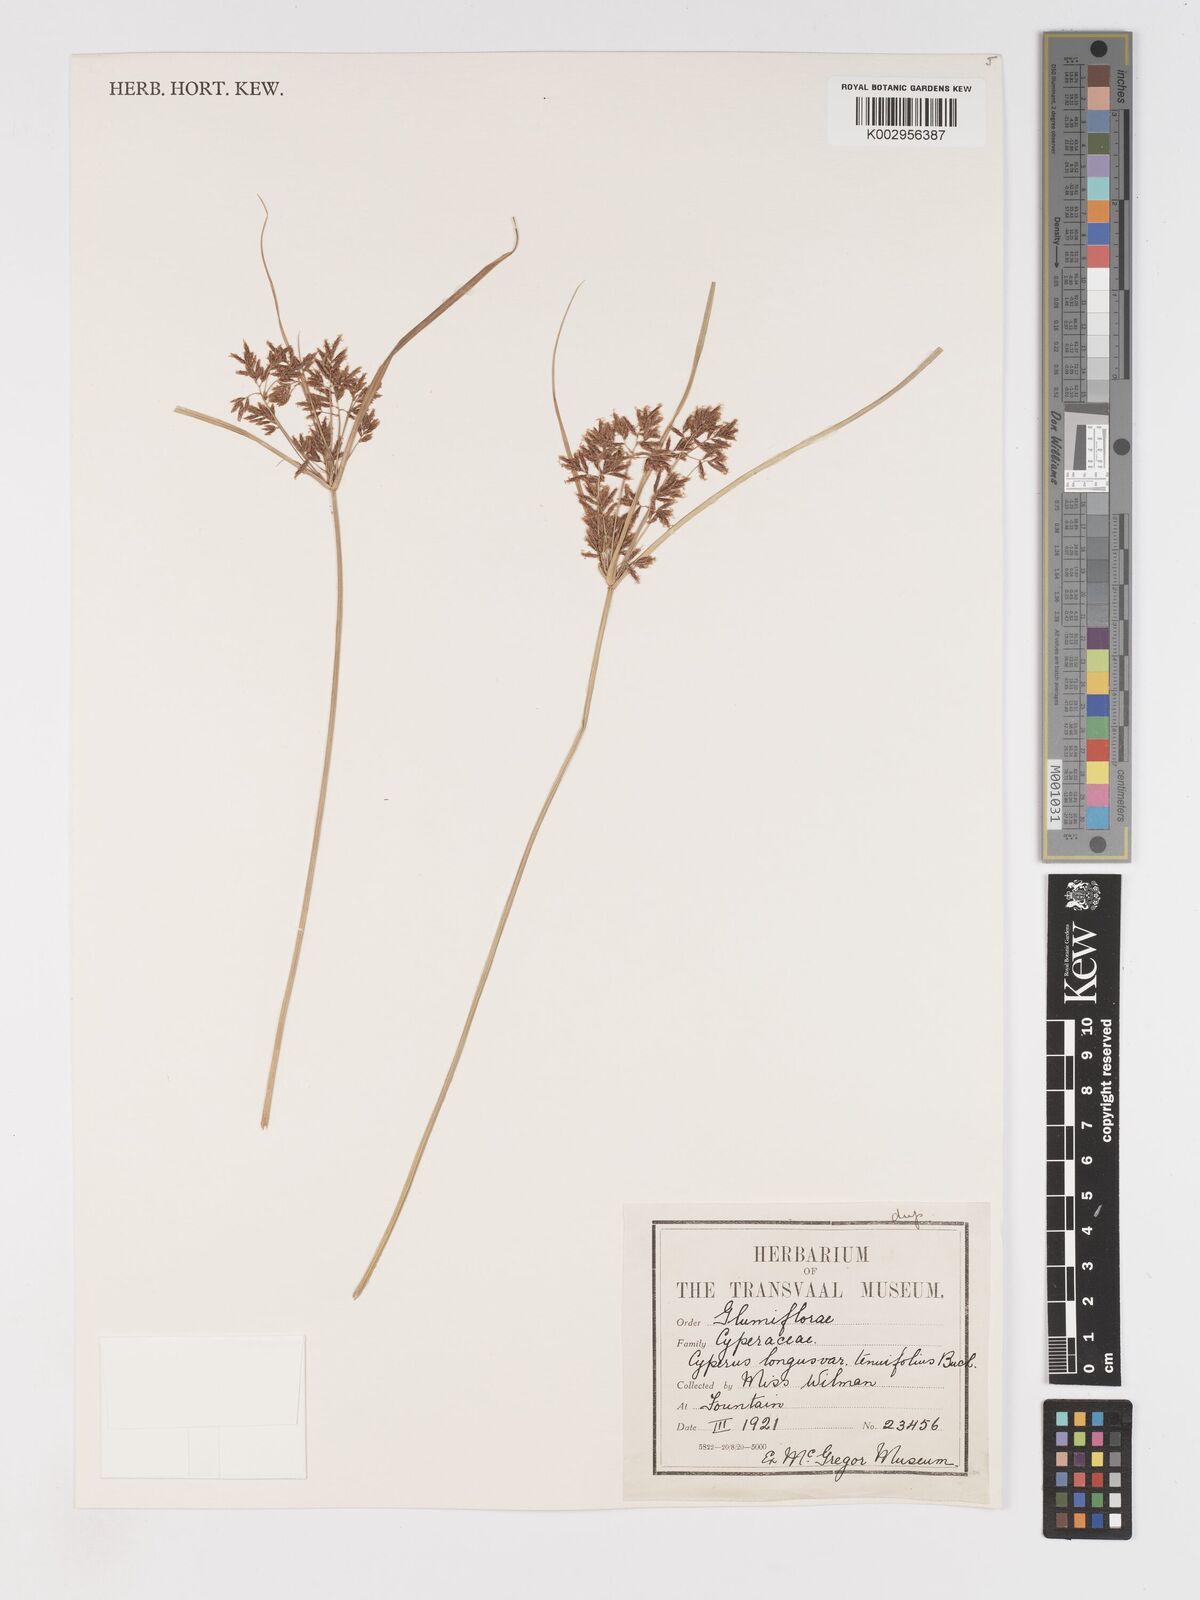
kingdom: Plantae
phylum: Tracheophyta
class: Liliopsida
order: Poales
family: Cyperaceae
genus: Cyperus
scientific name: Cyperus longus
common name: Galingale
